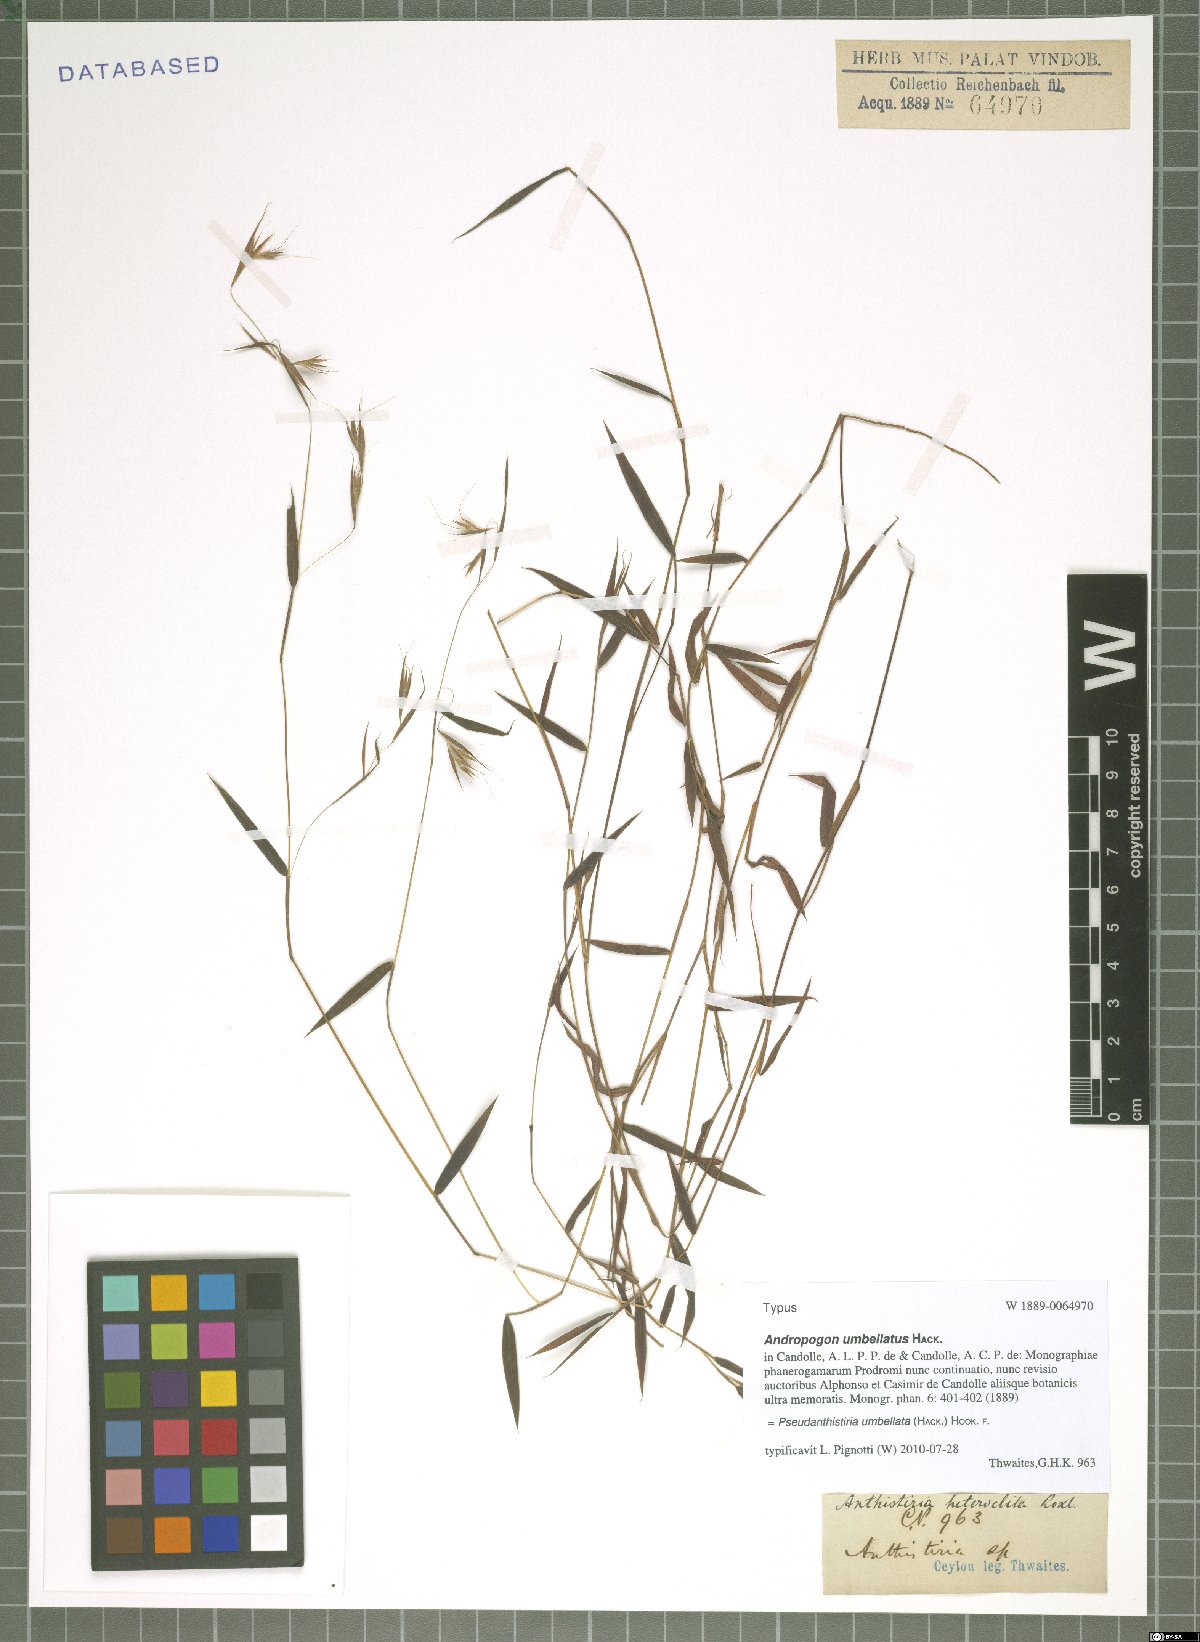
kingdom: Plantae
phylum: Tracheophyta
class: Liliopsida
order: Poales
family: Poaceae
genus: Pseudanthistiria
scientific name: Pseudanthistiria umbellata
